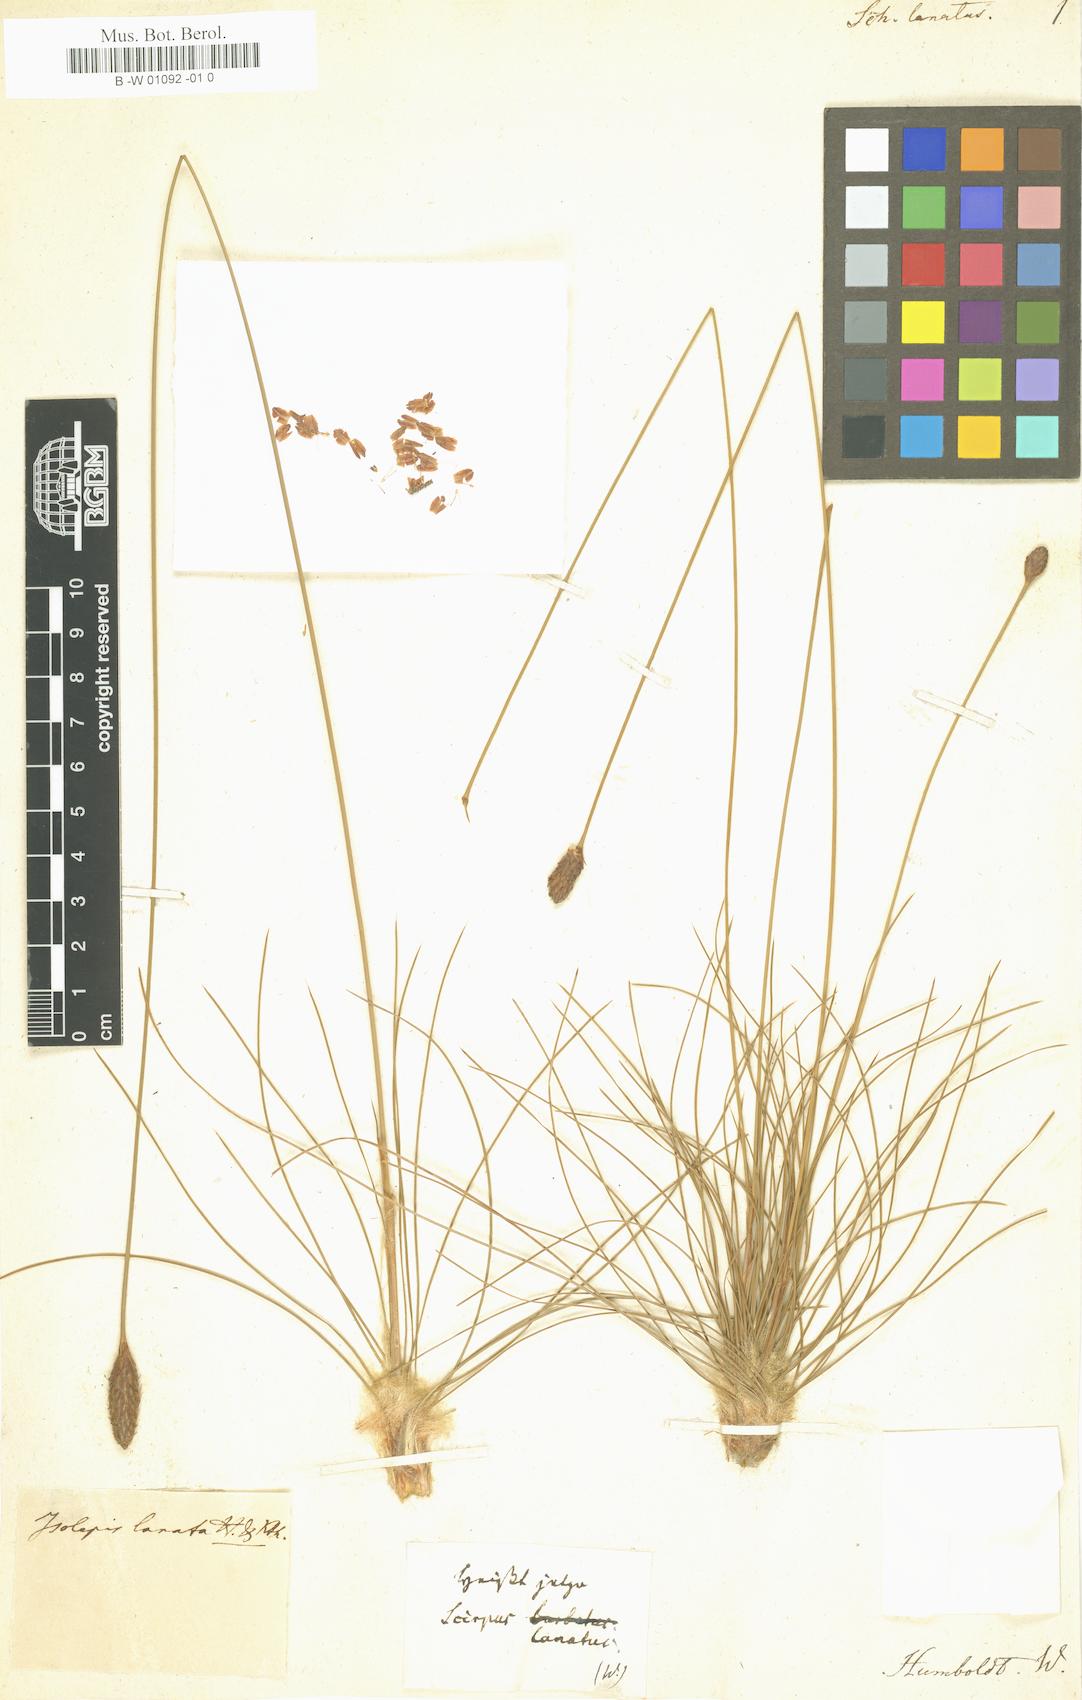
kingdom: Plantae
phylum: Tracheophyta
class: Liliopsida
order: Poales
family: Cyperaceae
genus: Bulbostylis
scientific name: Bulbostylis lanata
